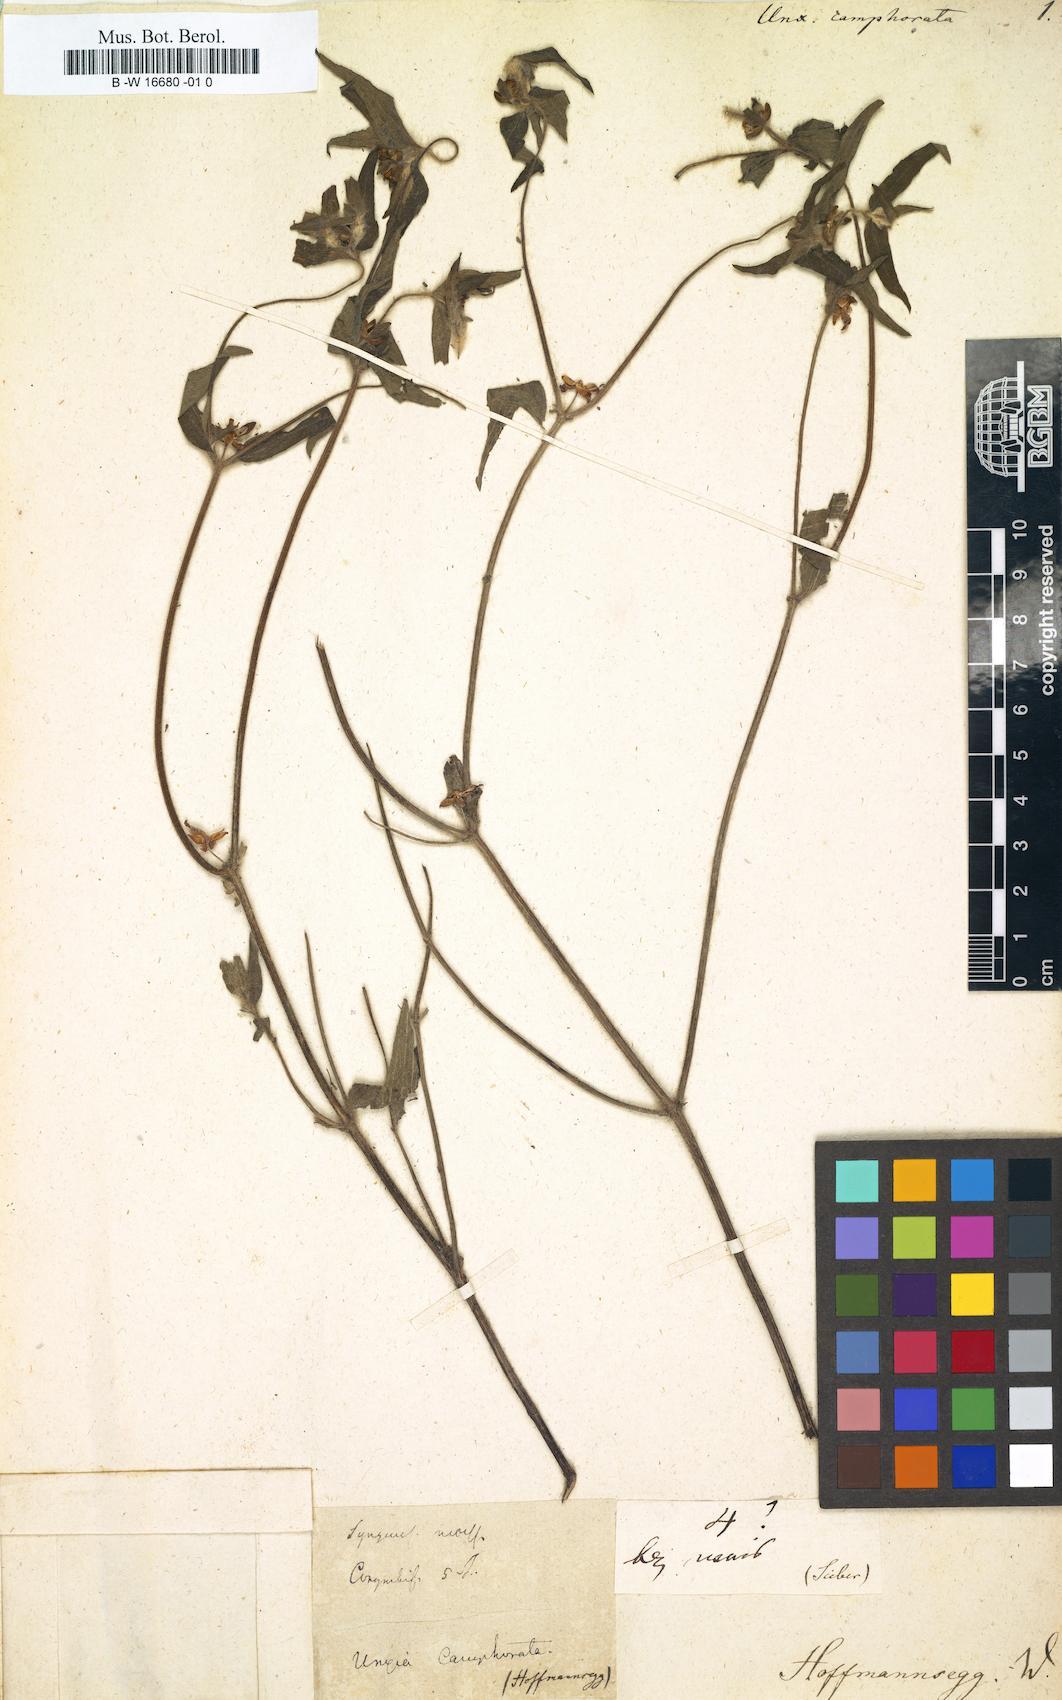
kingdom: Plantae
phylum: Tracheophyta
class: Magnoliopsida
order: Asterales
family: Asteraceae
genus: Unxia
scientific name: Unxia camphorata
